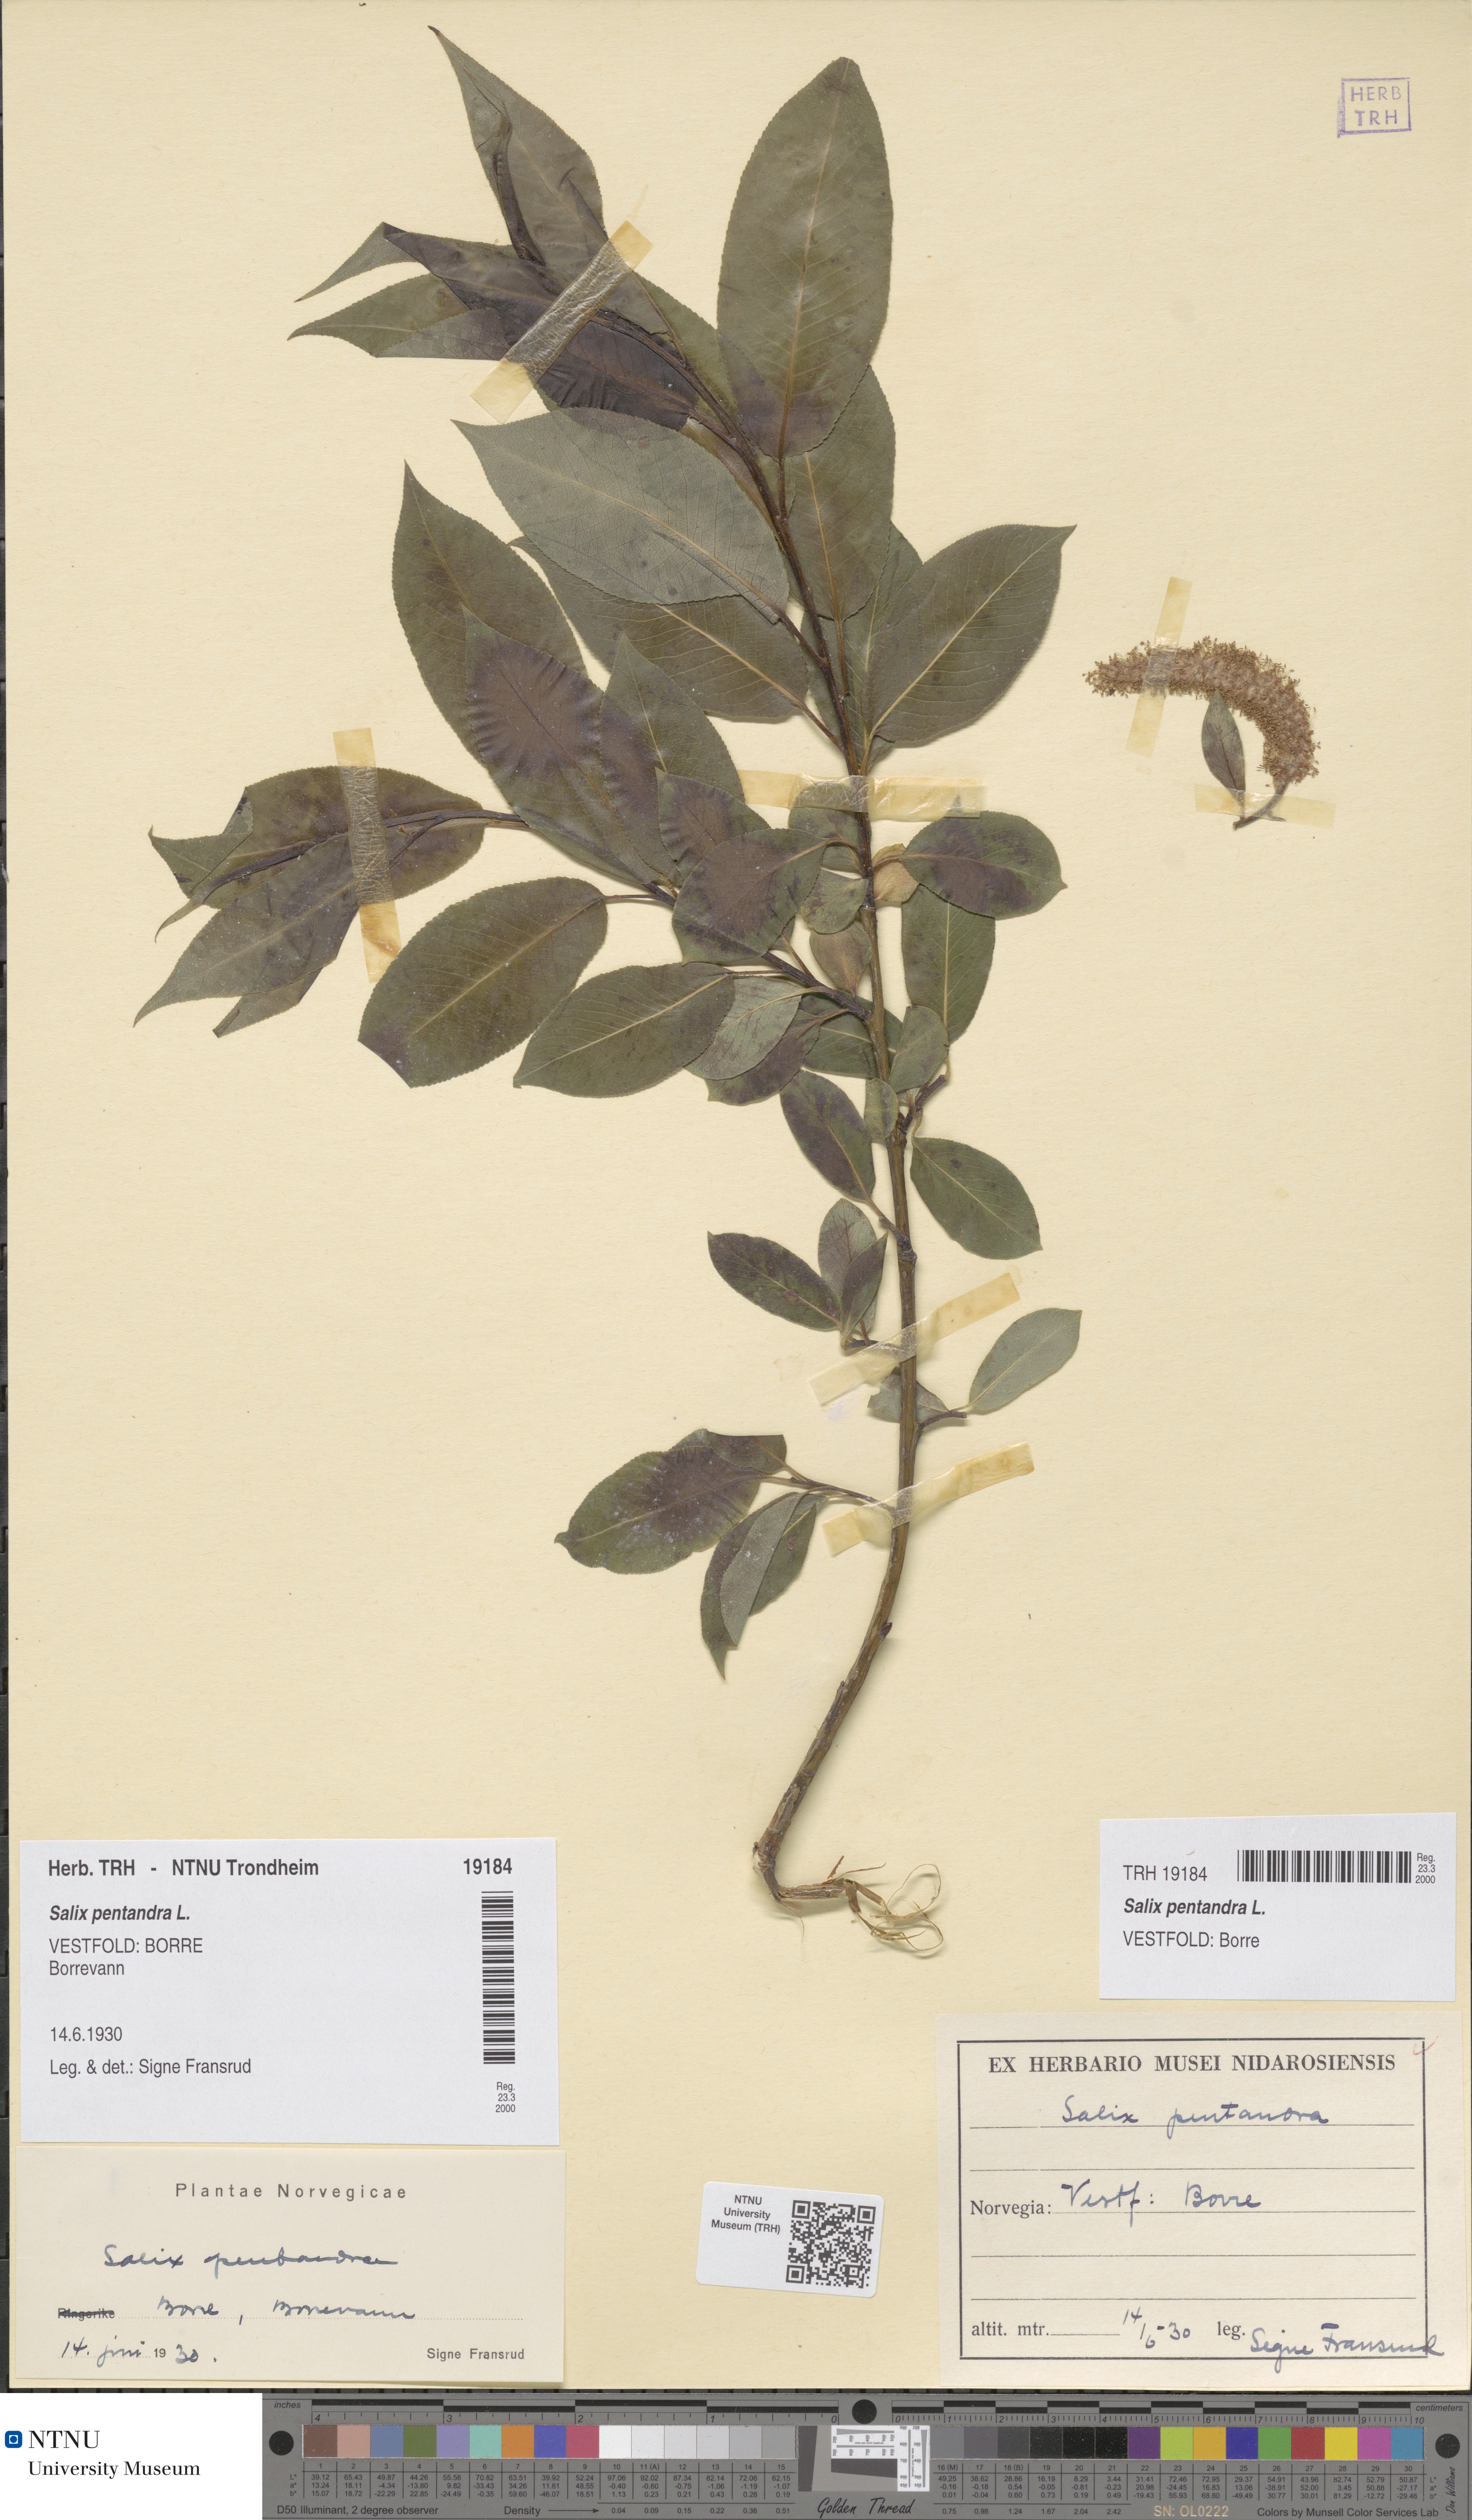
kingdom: Plantae
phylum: Tracheophyta
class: Magnoliopsida
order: Malpighiales
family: Salicaceae
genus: Salix
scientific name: Salix pentandra
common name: Bay willow
